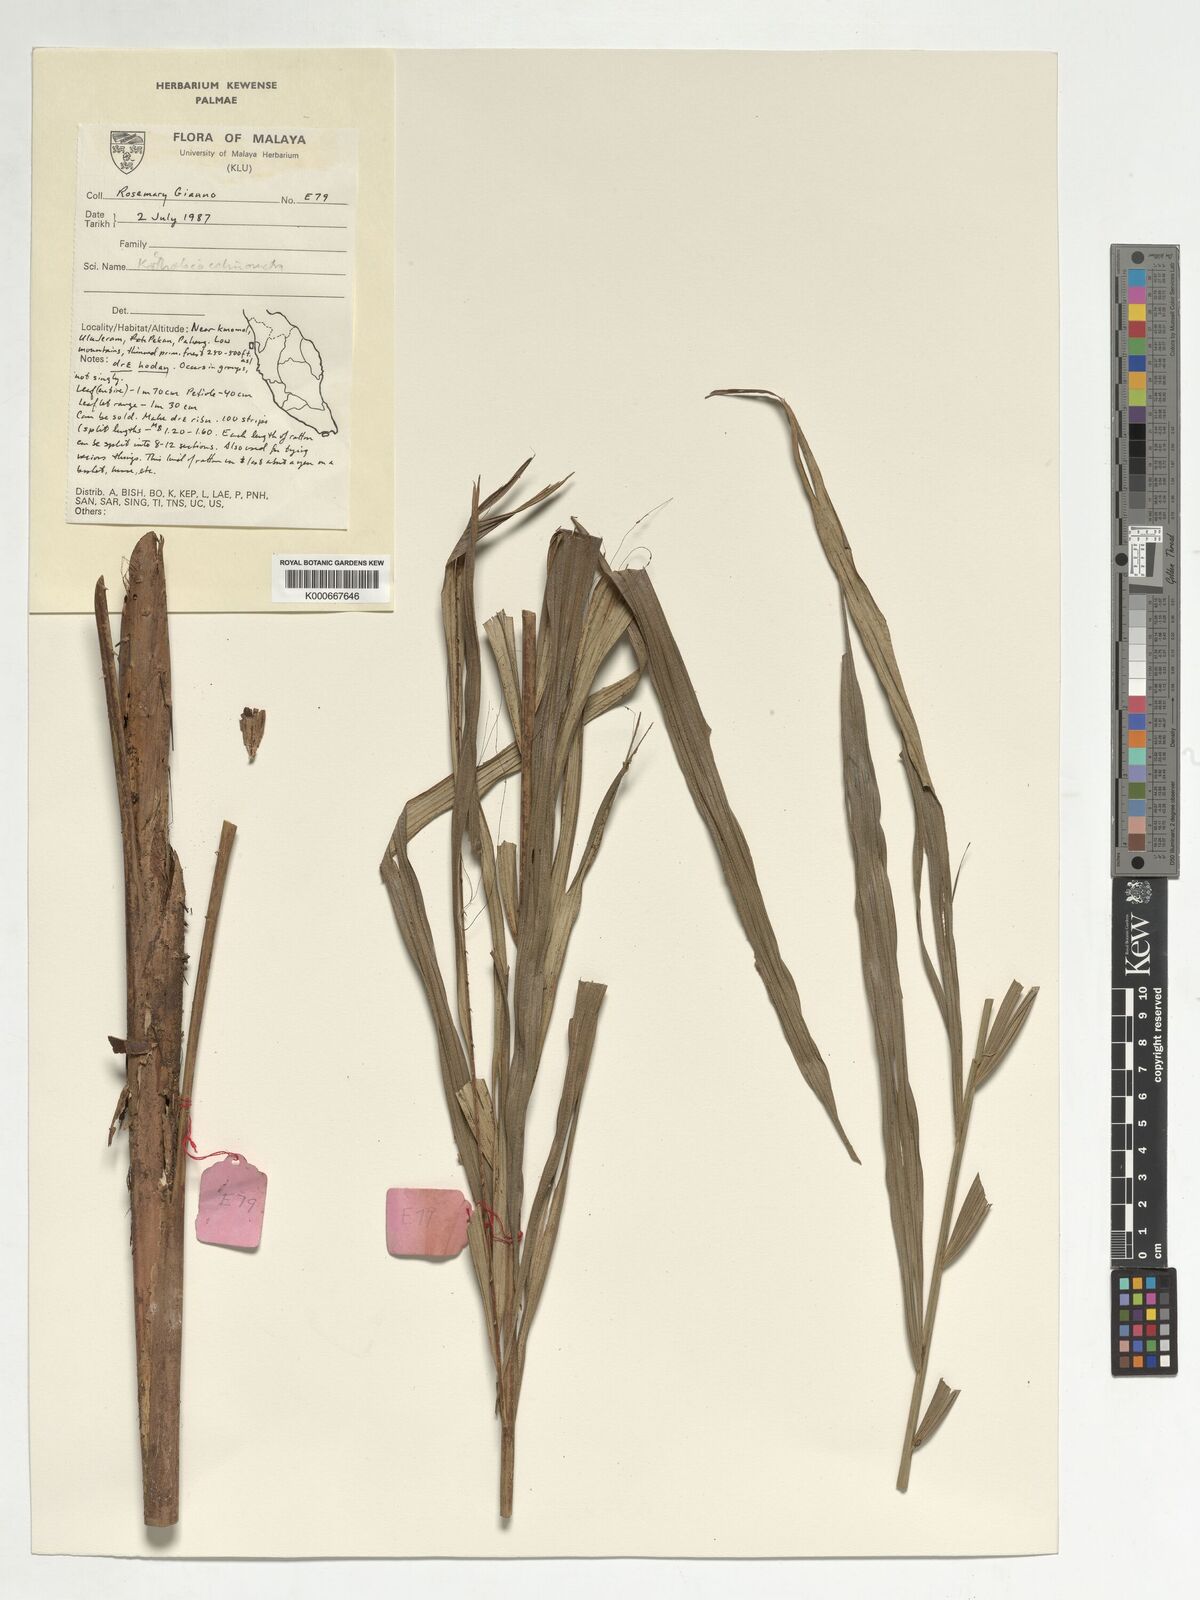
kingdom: Plantae
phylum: Tracheophyta
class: Liliopsida
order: Arecales
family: Arecaceae
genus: Korthalsia
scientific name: Korthalsia echinometra
